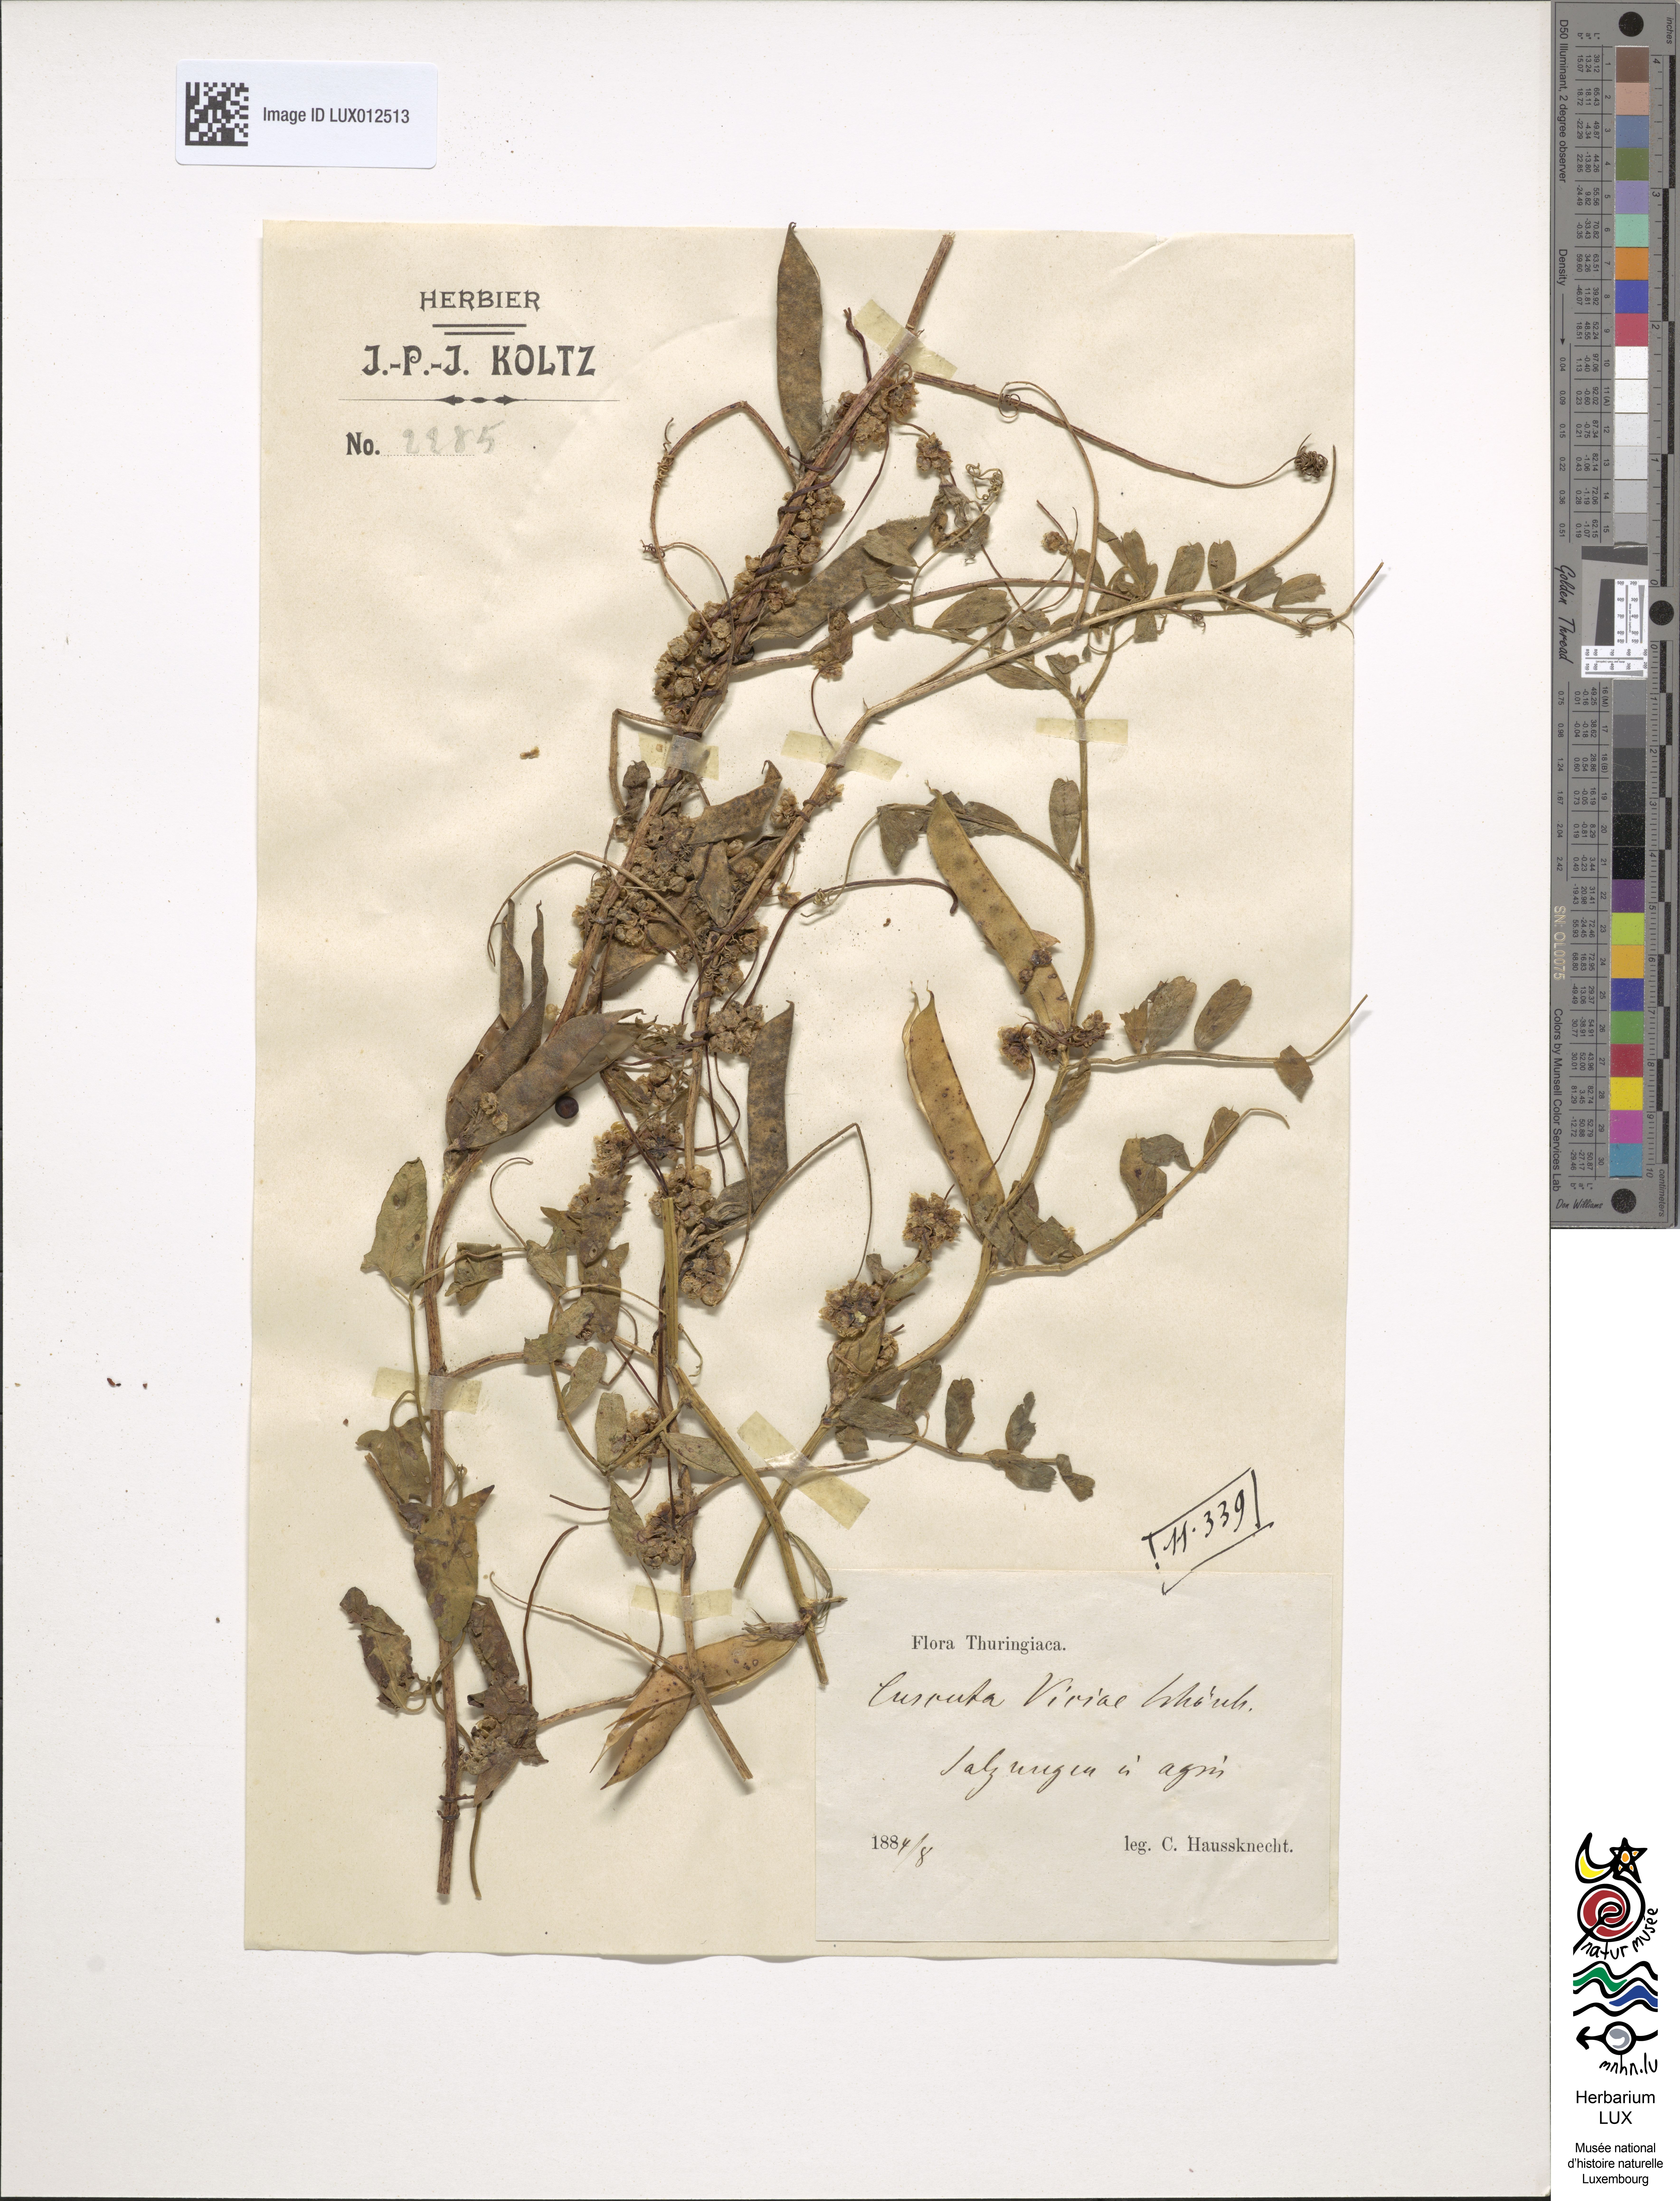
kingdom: Plantae
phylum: Tracheophyta
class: Magnoliopsida
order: Solanales
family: Convolvulaceae
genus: Cuscuta
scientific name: Cuscuta europaea
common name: Greater dodder
